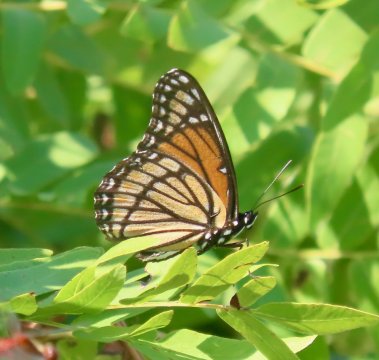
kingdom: Animalia
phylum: Arthropoda
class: Insecta
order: Lepidoptera
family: Nymphalidae
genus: Limenitis
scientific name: Limenitis archippus
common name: Viceroy
